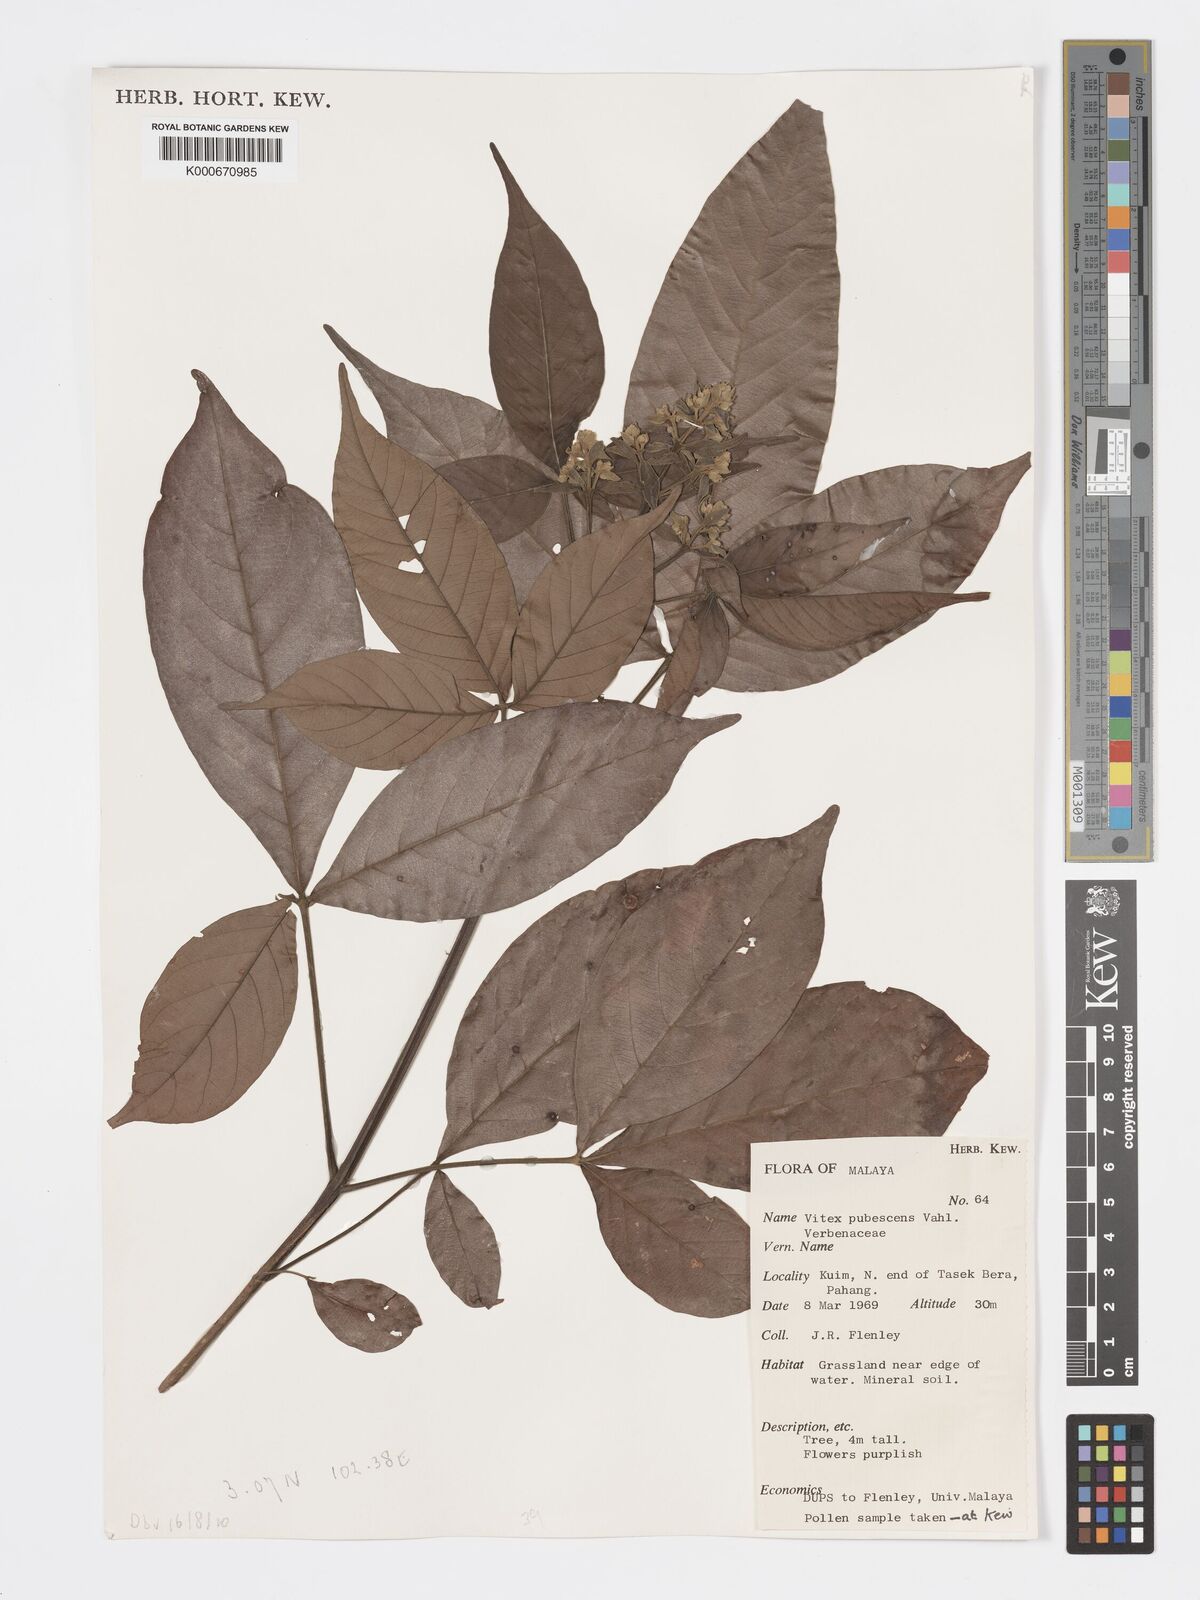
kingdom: Plantae
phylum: Tracheophyta
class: Magnoliopsida
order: Lamiales
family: Lamiaceae
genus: Vitex
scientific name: Vitex pinnata
